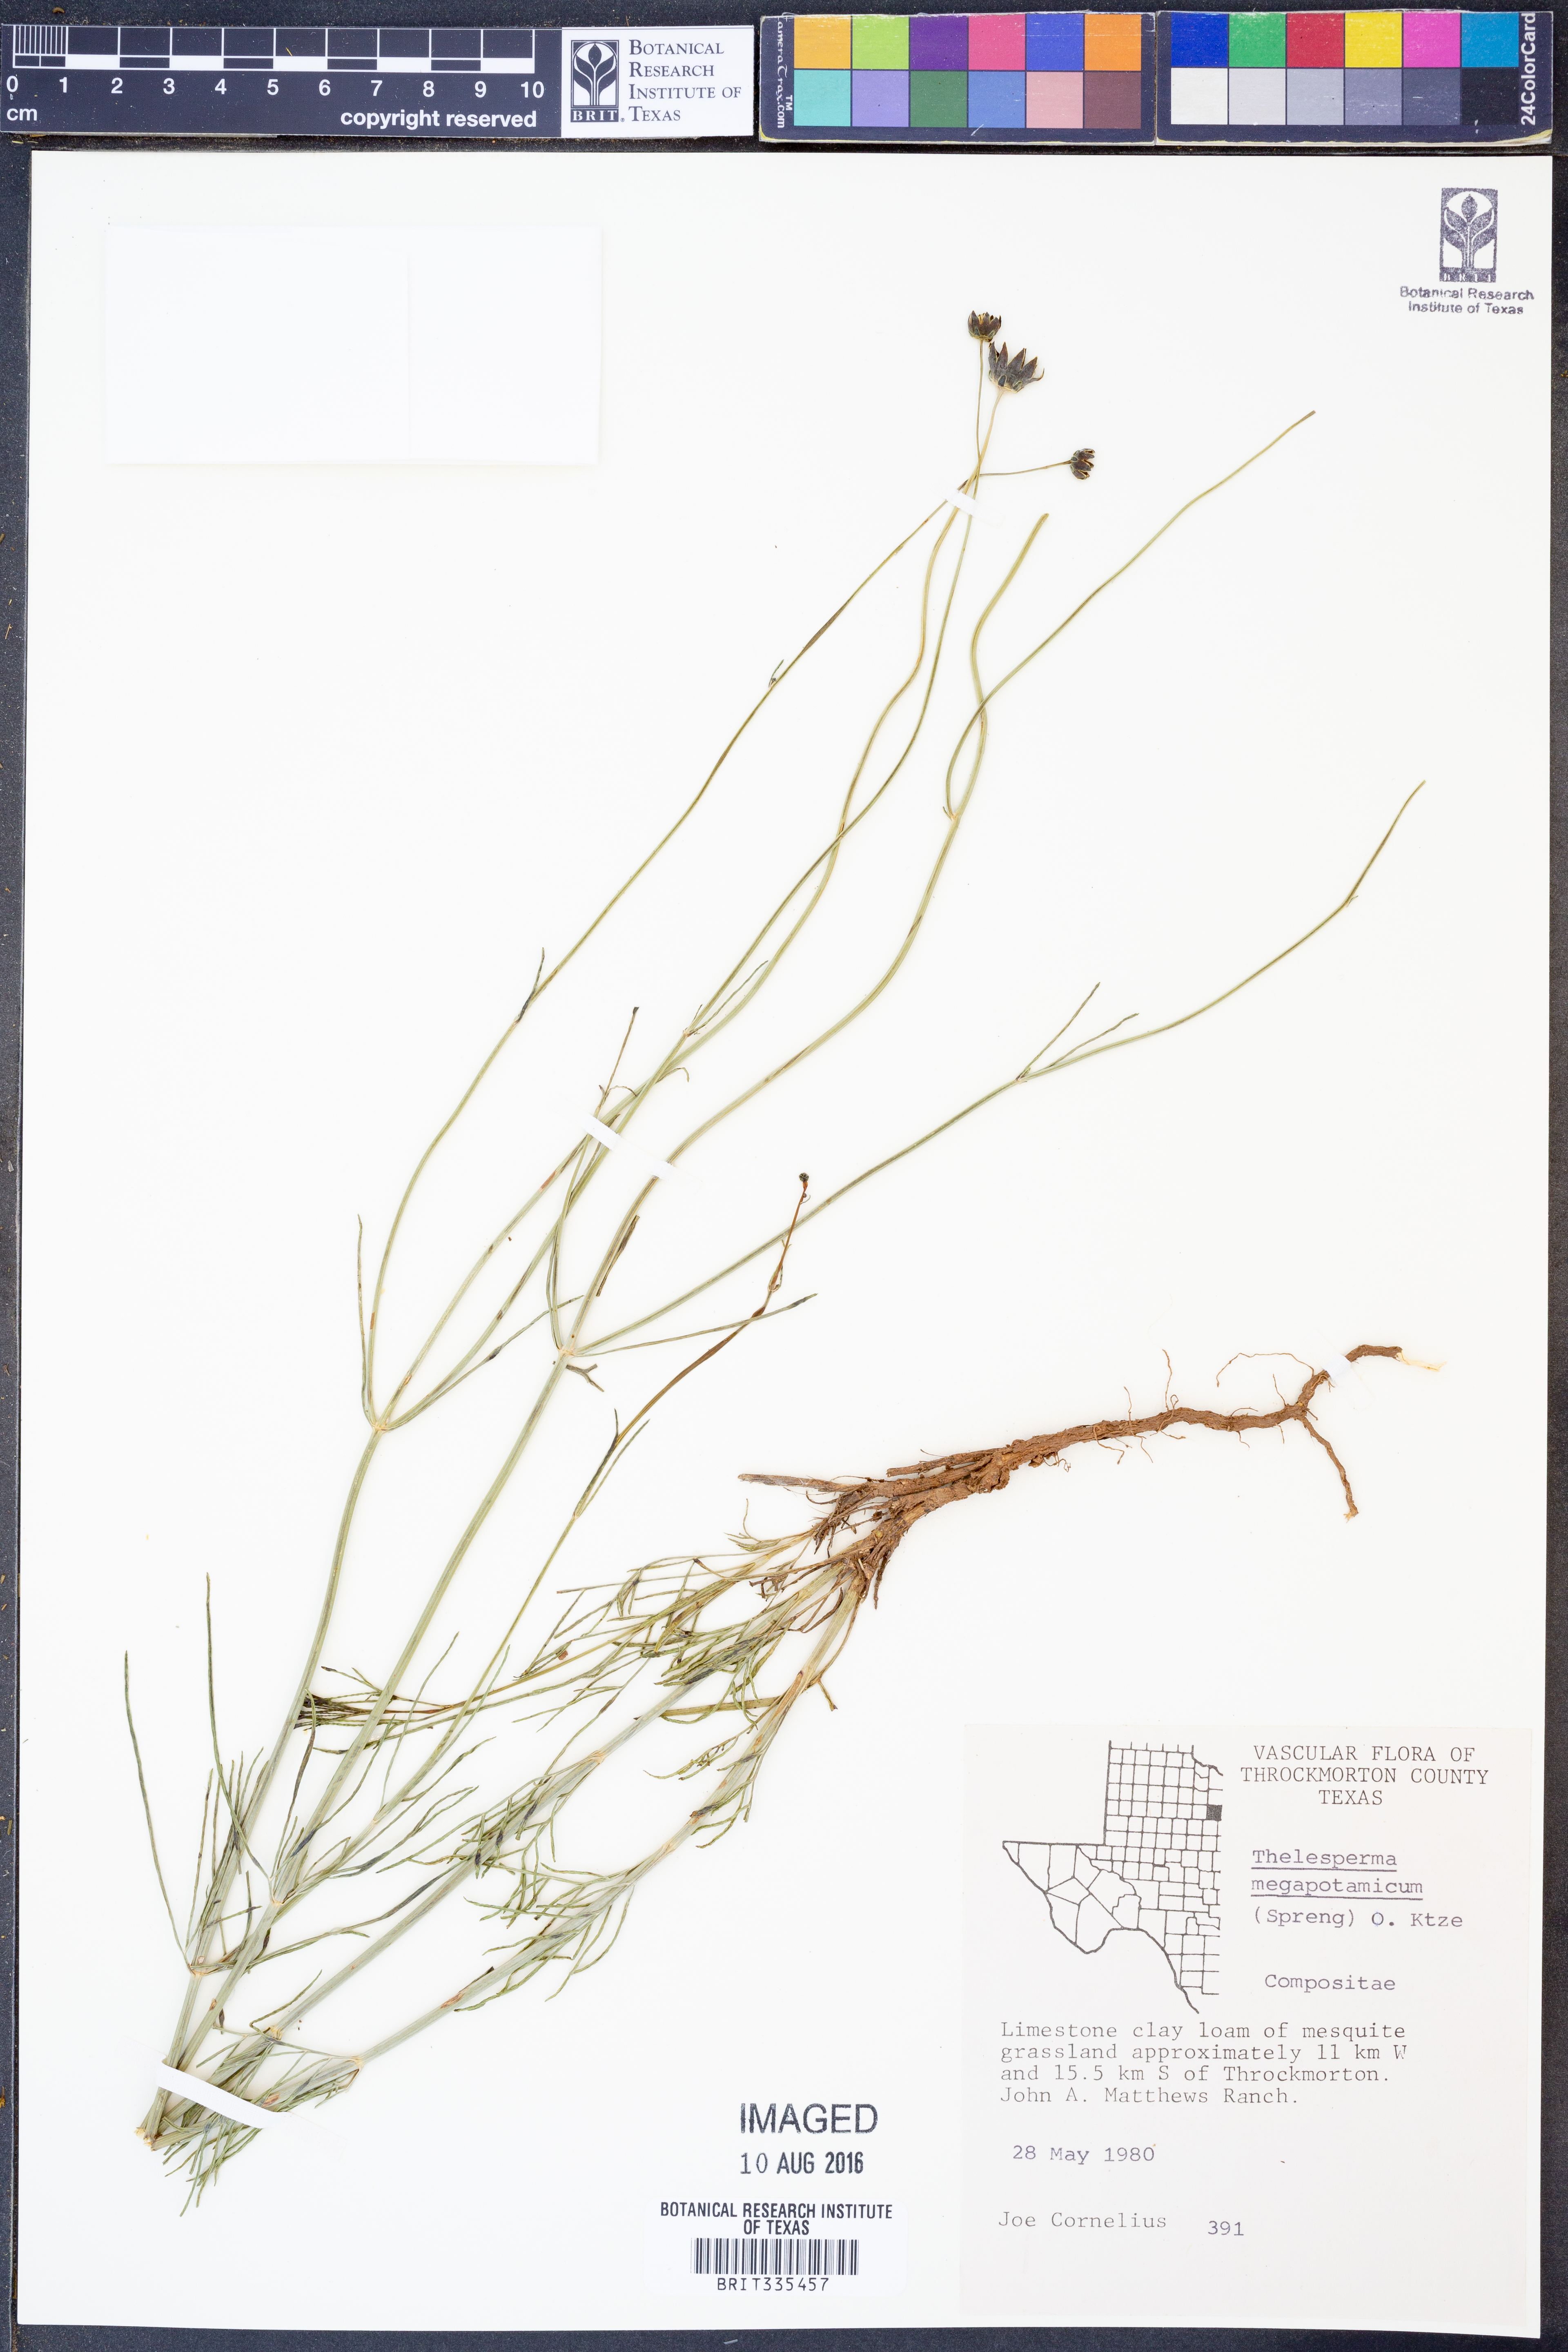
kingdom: Plantae
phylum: Tracheophyta
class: Magnoliopsida
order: Asterales
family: Asteraceae
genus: Thelesperma
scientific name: Thelesperma megapotamicum
